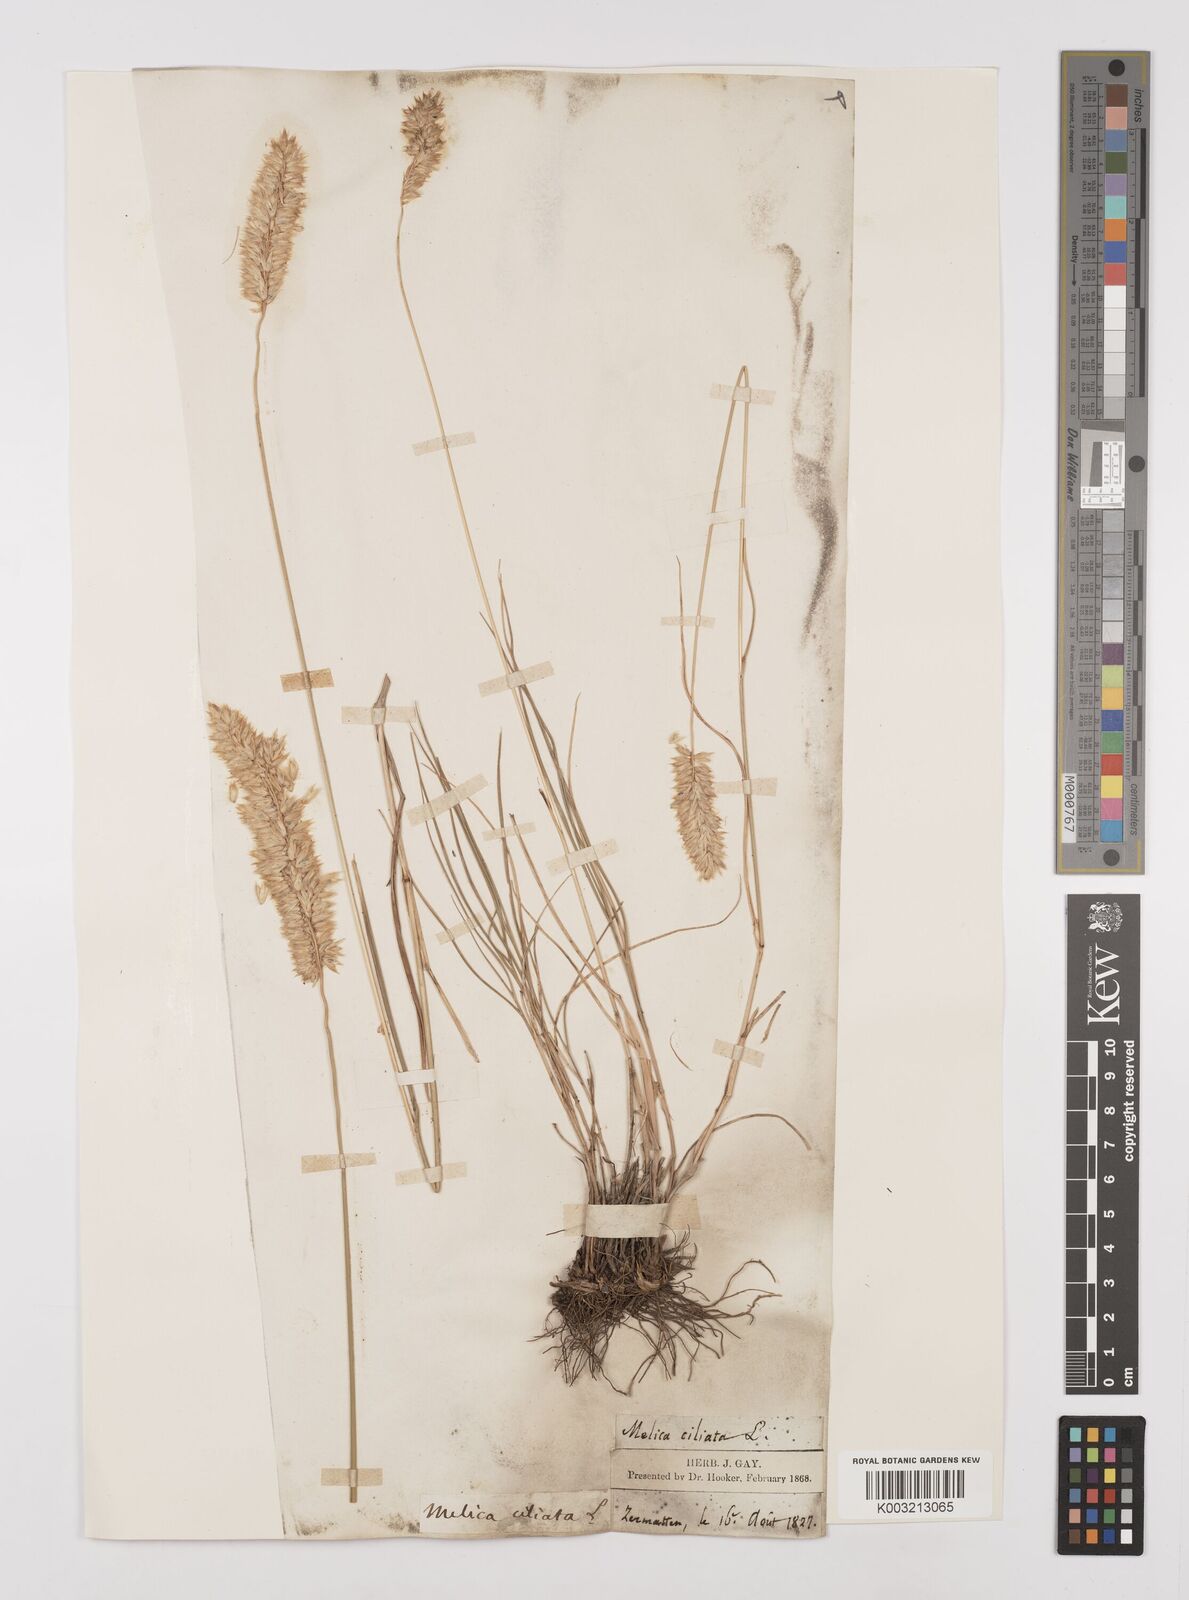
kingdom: Plantae
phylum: Tracheophyta
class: Liliopsida
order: Poales
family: Poaceae
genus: Melica
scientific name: Melica ciliata
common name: Hairy melicgrass
